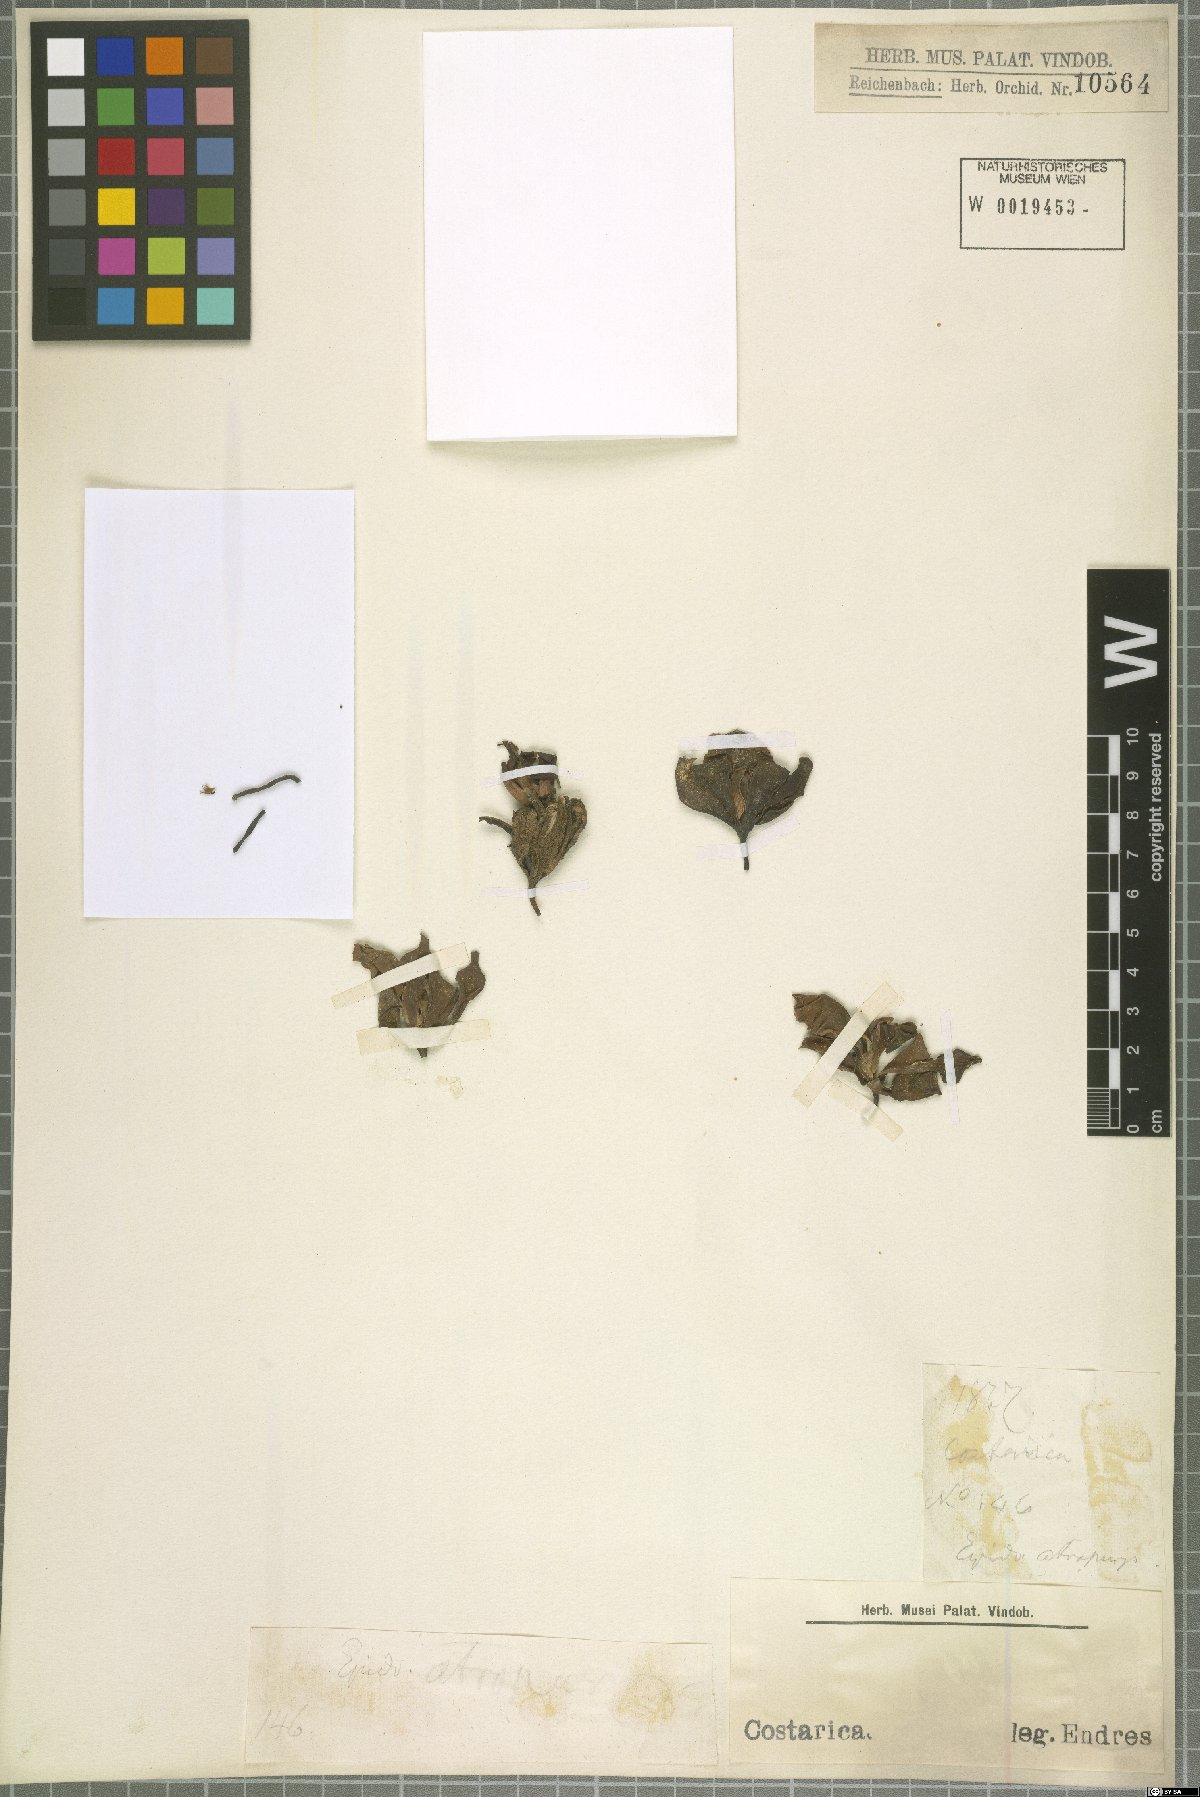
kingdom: Plantae
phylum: Tracheophyta
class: Liliopsida
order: Asparagales
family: Orchidaceae
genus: Encyclia
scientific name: Encyclia
